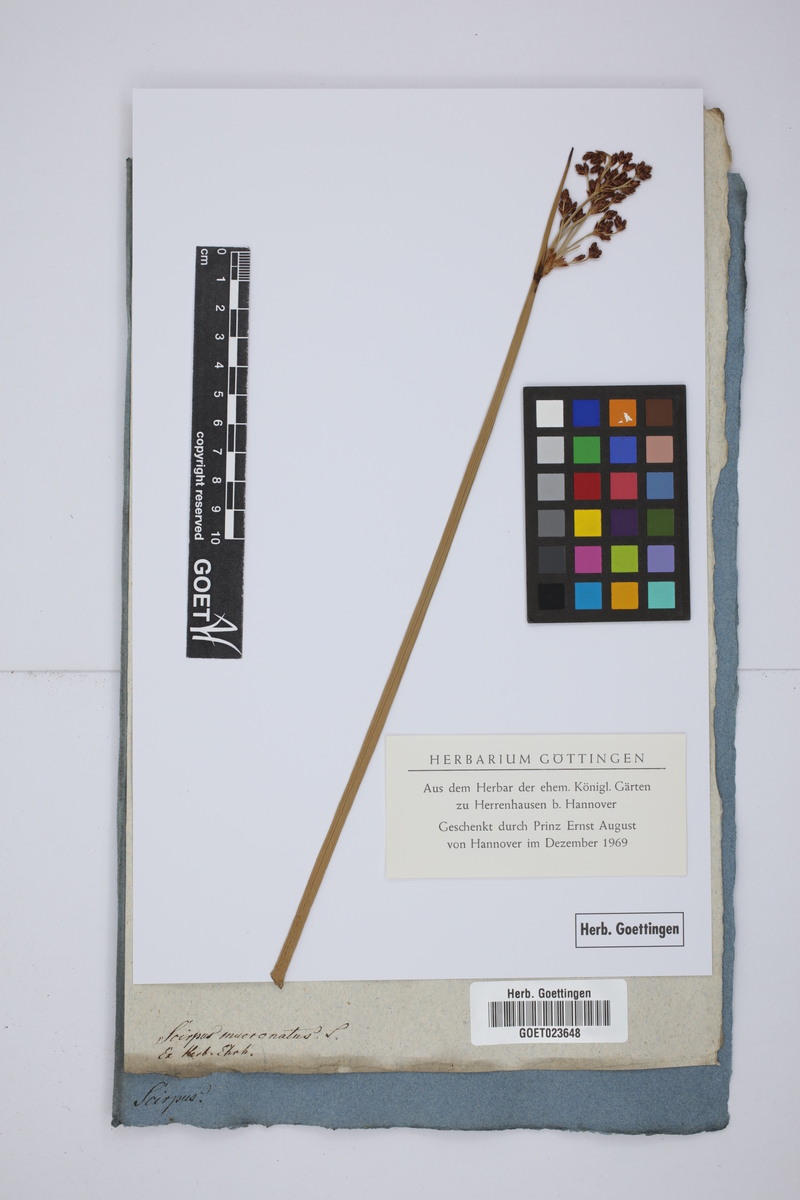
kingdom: Plantae
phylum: Tracheophyta
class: Liliopsida
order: Poales
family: Cyperaceae
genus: Schoenoplectiella
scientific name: Schoenoplectiella mucronata
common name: Bog bulrush
